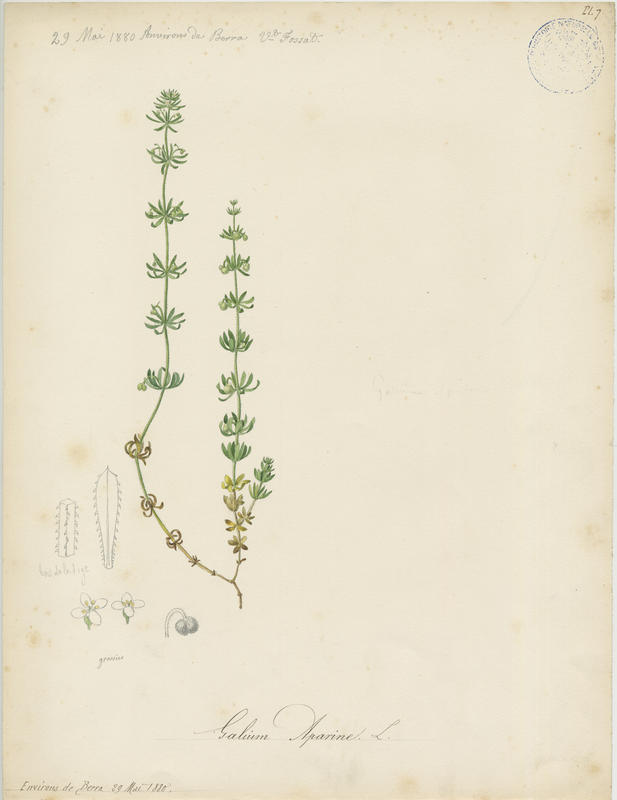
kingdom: Plantae
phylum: Tracheophyta
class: Magnoliopsida
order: Gentianales
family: Rubiaceae
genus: Galium
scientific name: Galium aparine
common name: Cleavers
